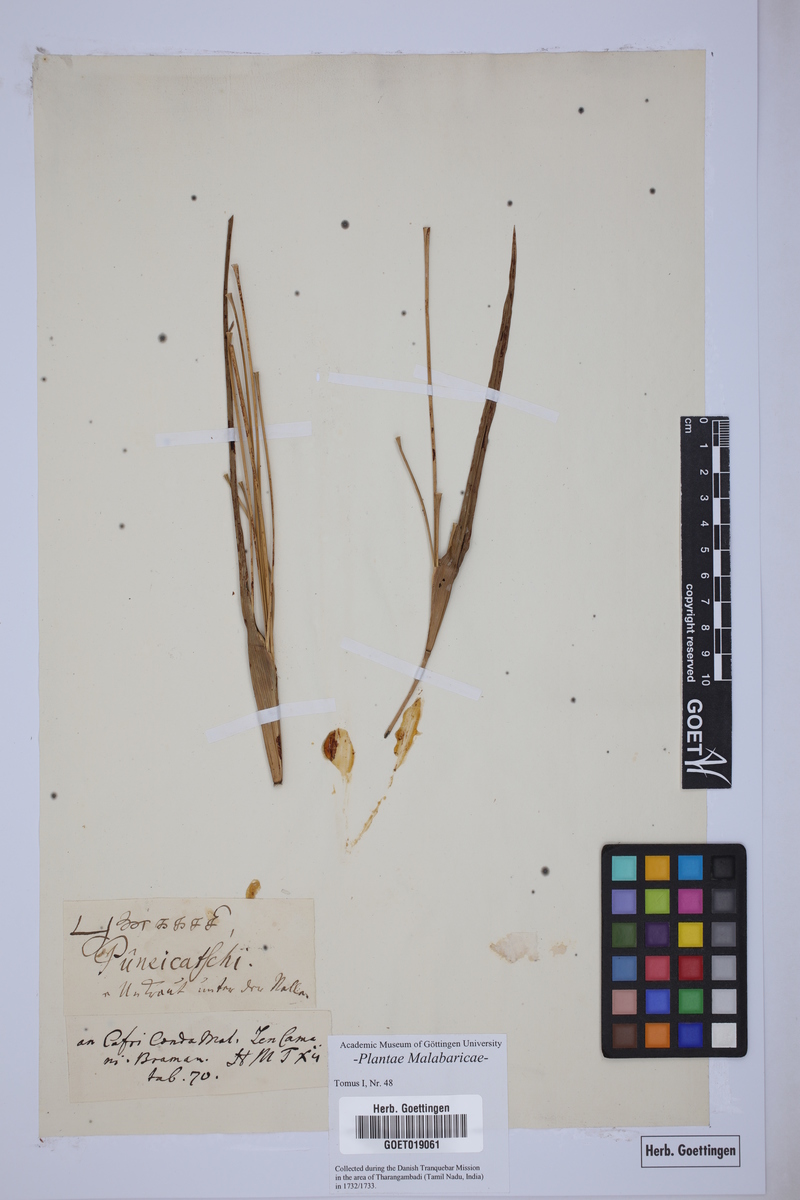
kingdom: Plantae
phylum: Tracheophyta
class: Liliopsida
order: Poales
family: Poaceae
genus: Coix
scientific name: Coix lacryma-jobi
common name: Job's tears
